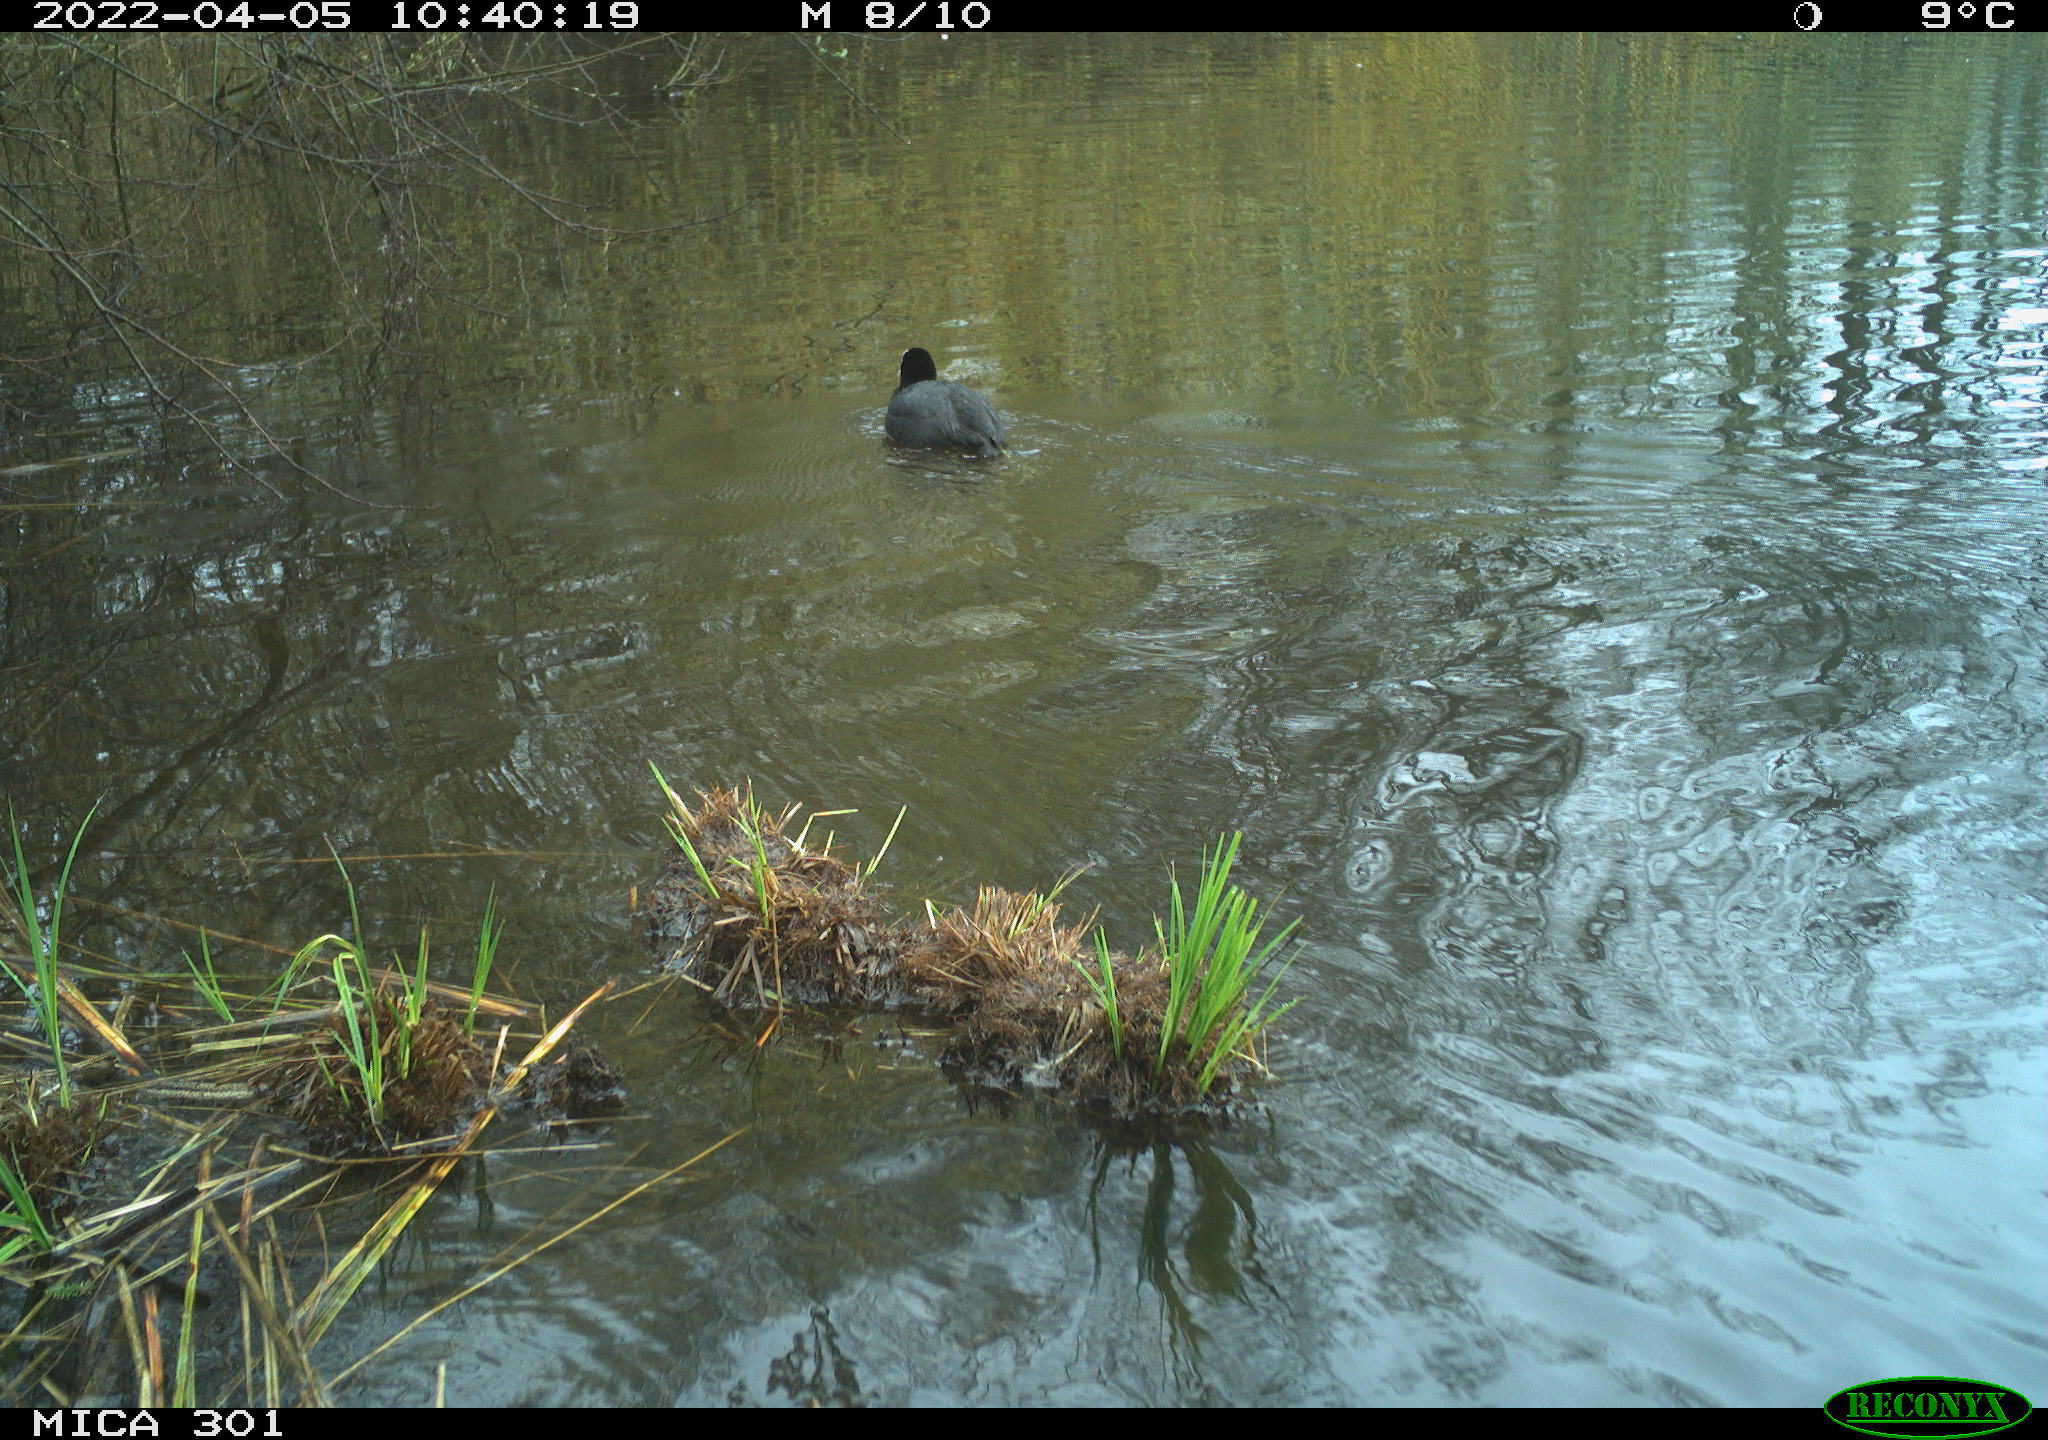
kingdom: Animalia
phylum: Chordata
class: Aves
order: Gruiformes
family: Rallidae
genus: Fulica
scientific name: Fulica atra
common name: Eurasian coot
